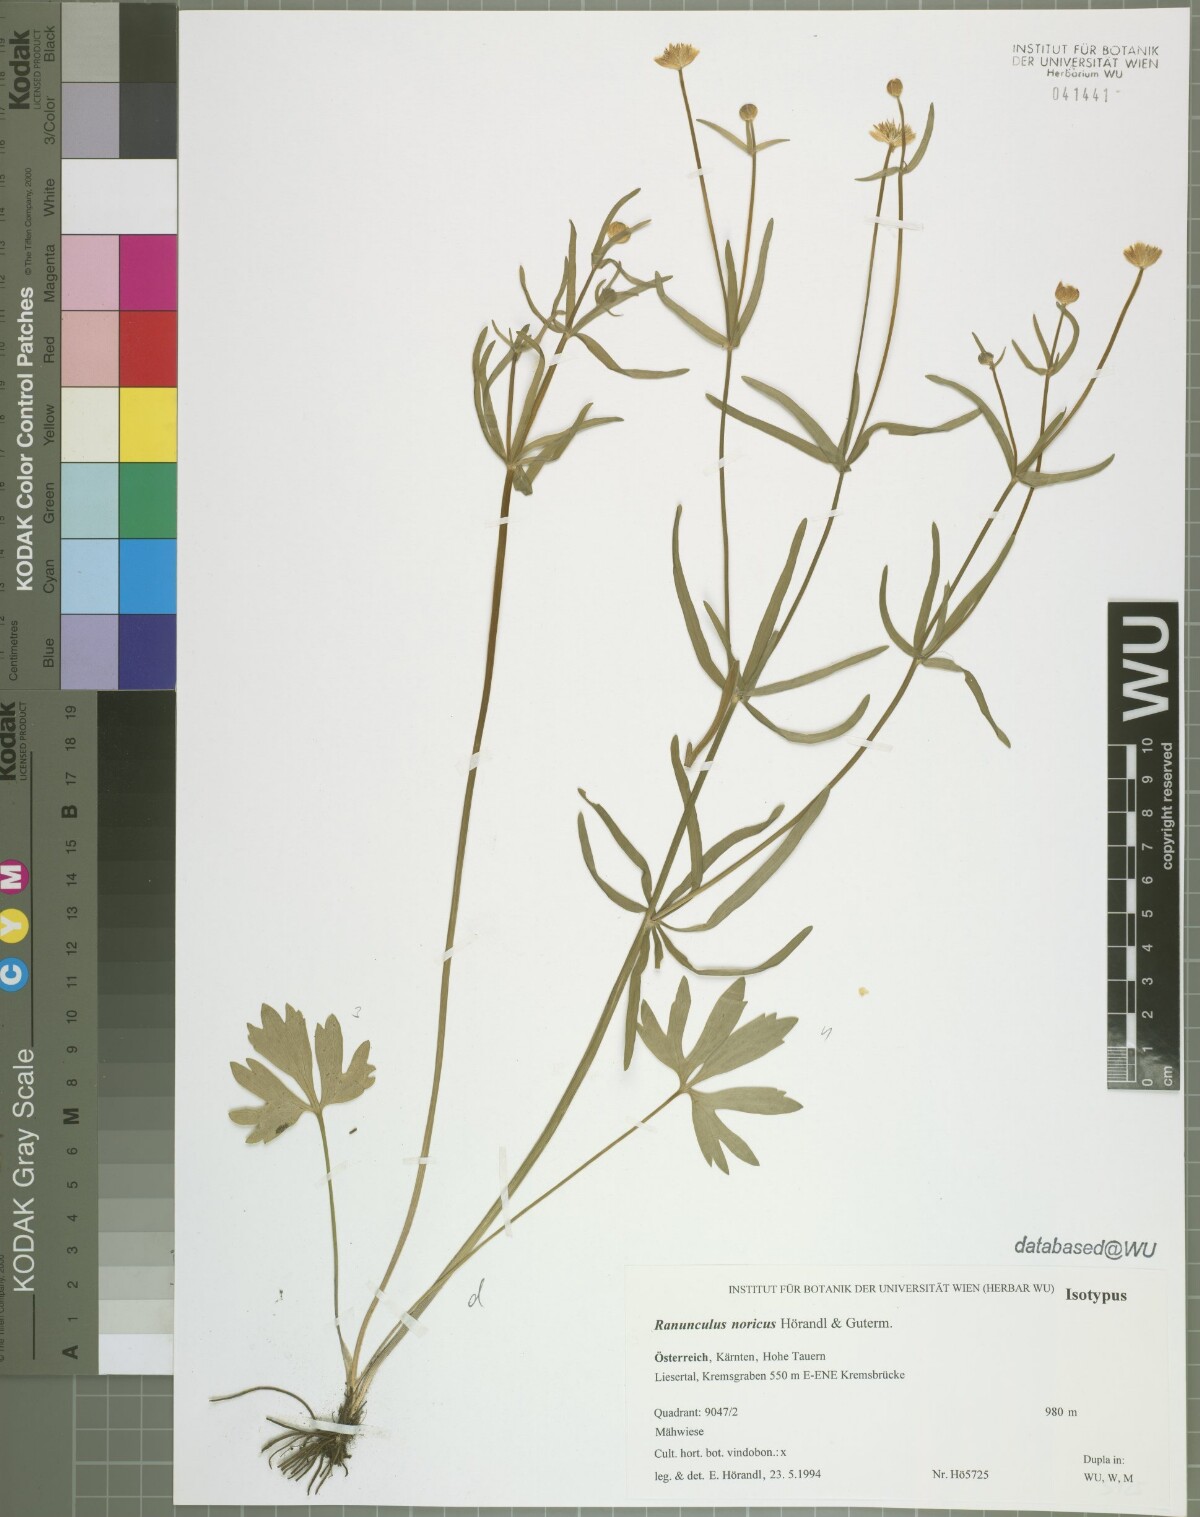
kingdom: Plantae
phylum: Tracheophyta
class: Magnoliopsida
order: Ranunculales
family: Ranunculaceae
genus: Ranunculus
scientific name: Ranunculus noricus
